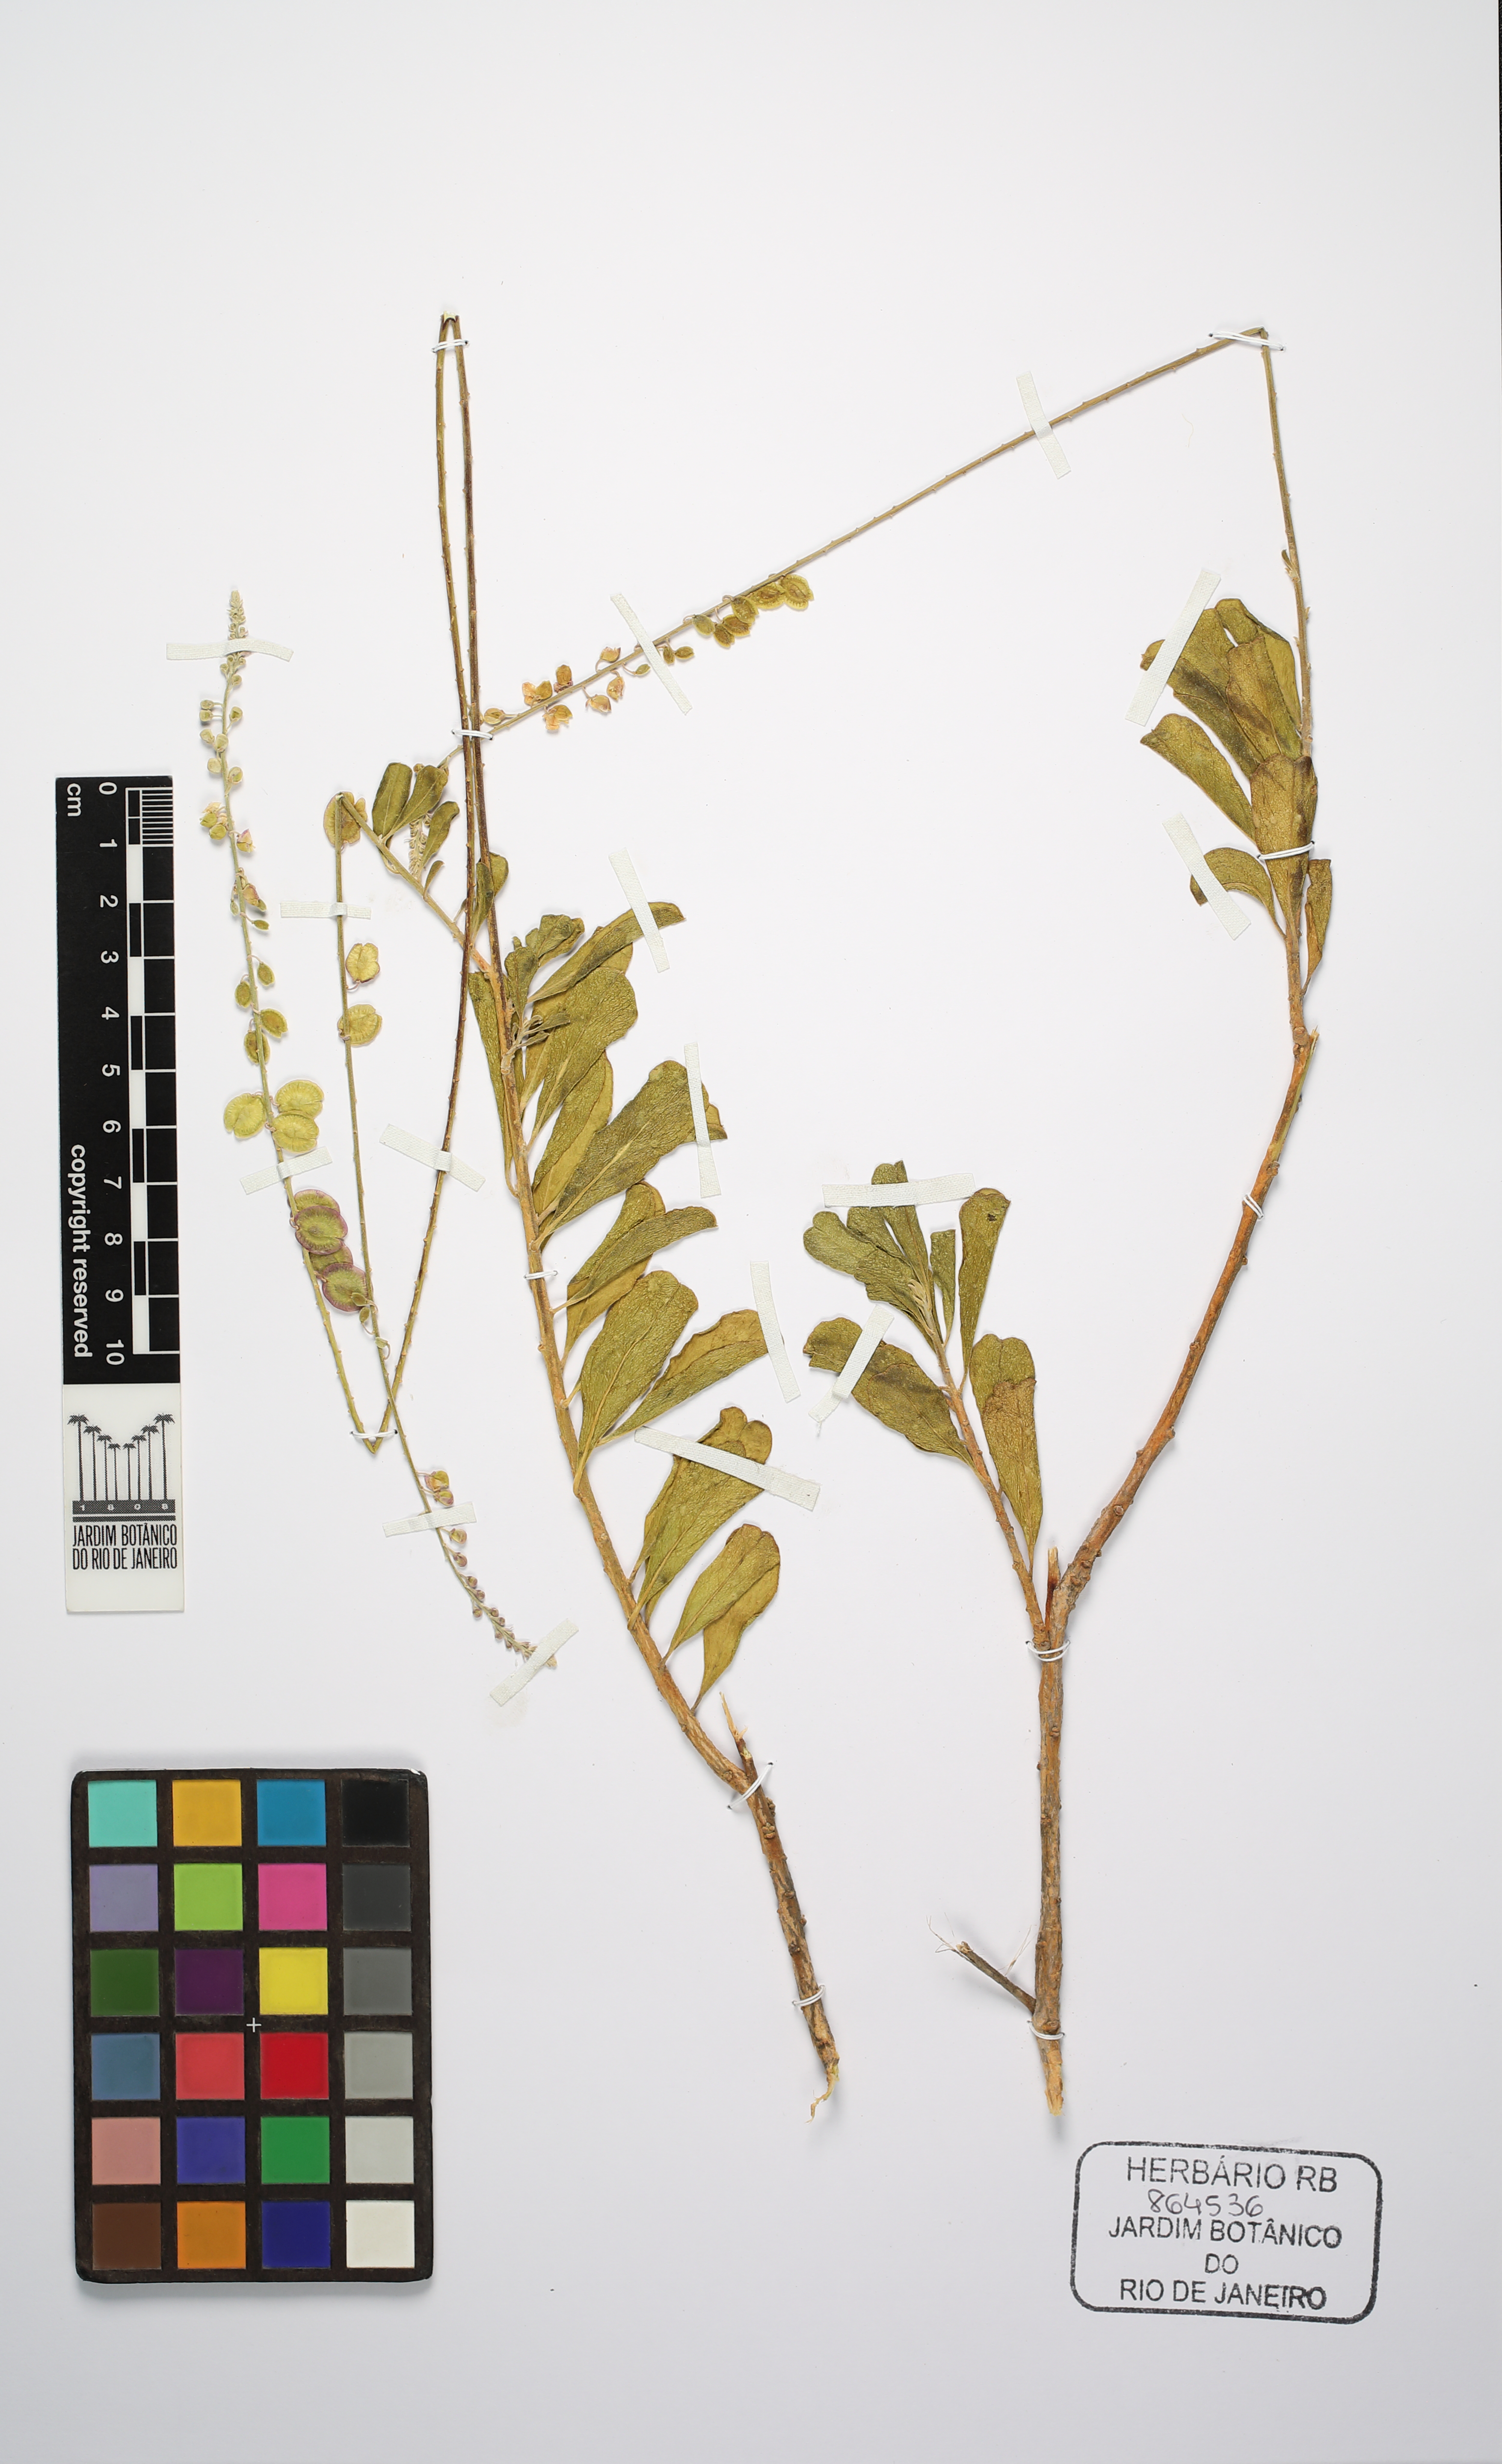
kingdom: Plantae
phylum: Tracheophyta
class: Magnoliopsida
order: Fabales
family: Polygalaceae
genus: Monnina
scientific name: Monnina richardiana
